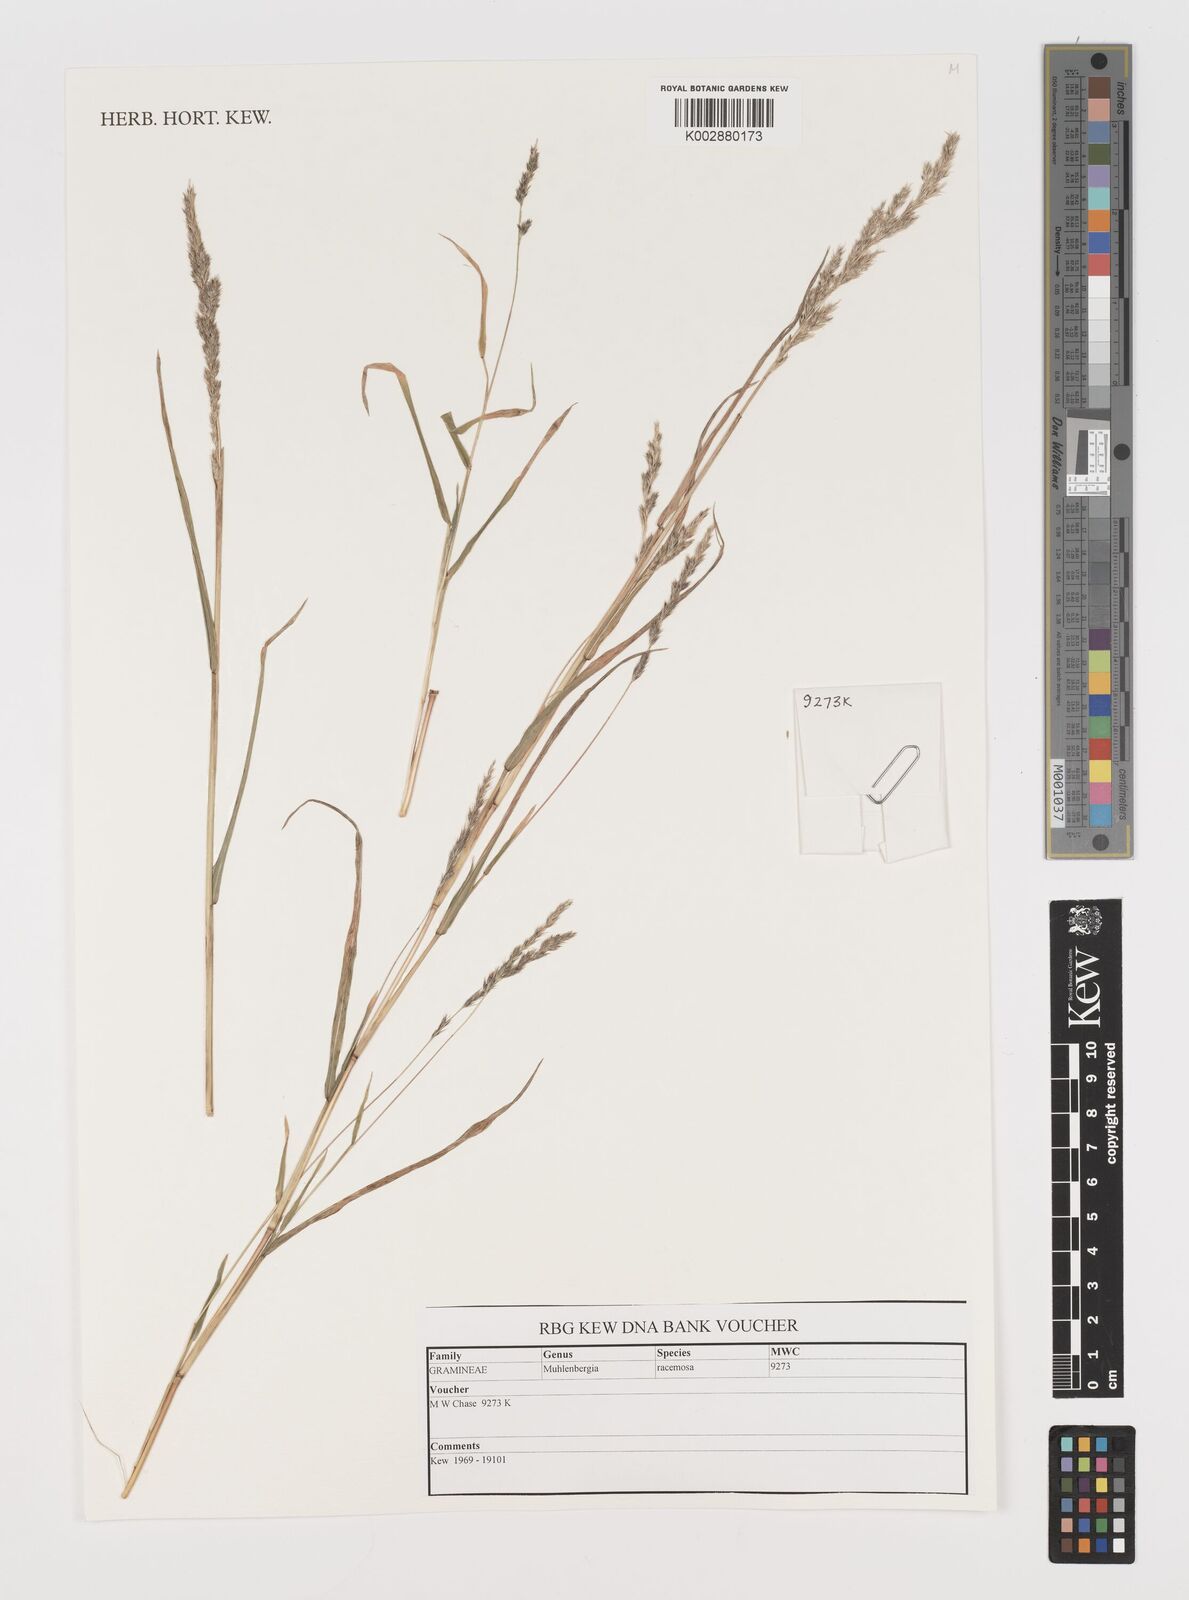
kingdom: Plantae
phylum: Tracheophyta
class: Liliopsida
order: Poales
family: Poaceae
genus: Muhlenbergia
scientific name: Muhlenbergia racemosa
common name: Green muhly
